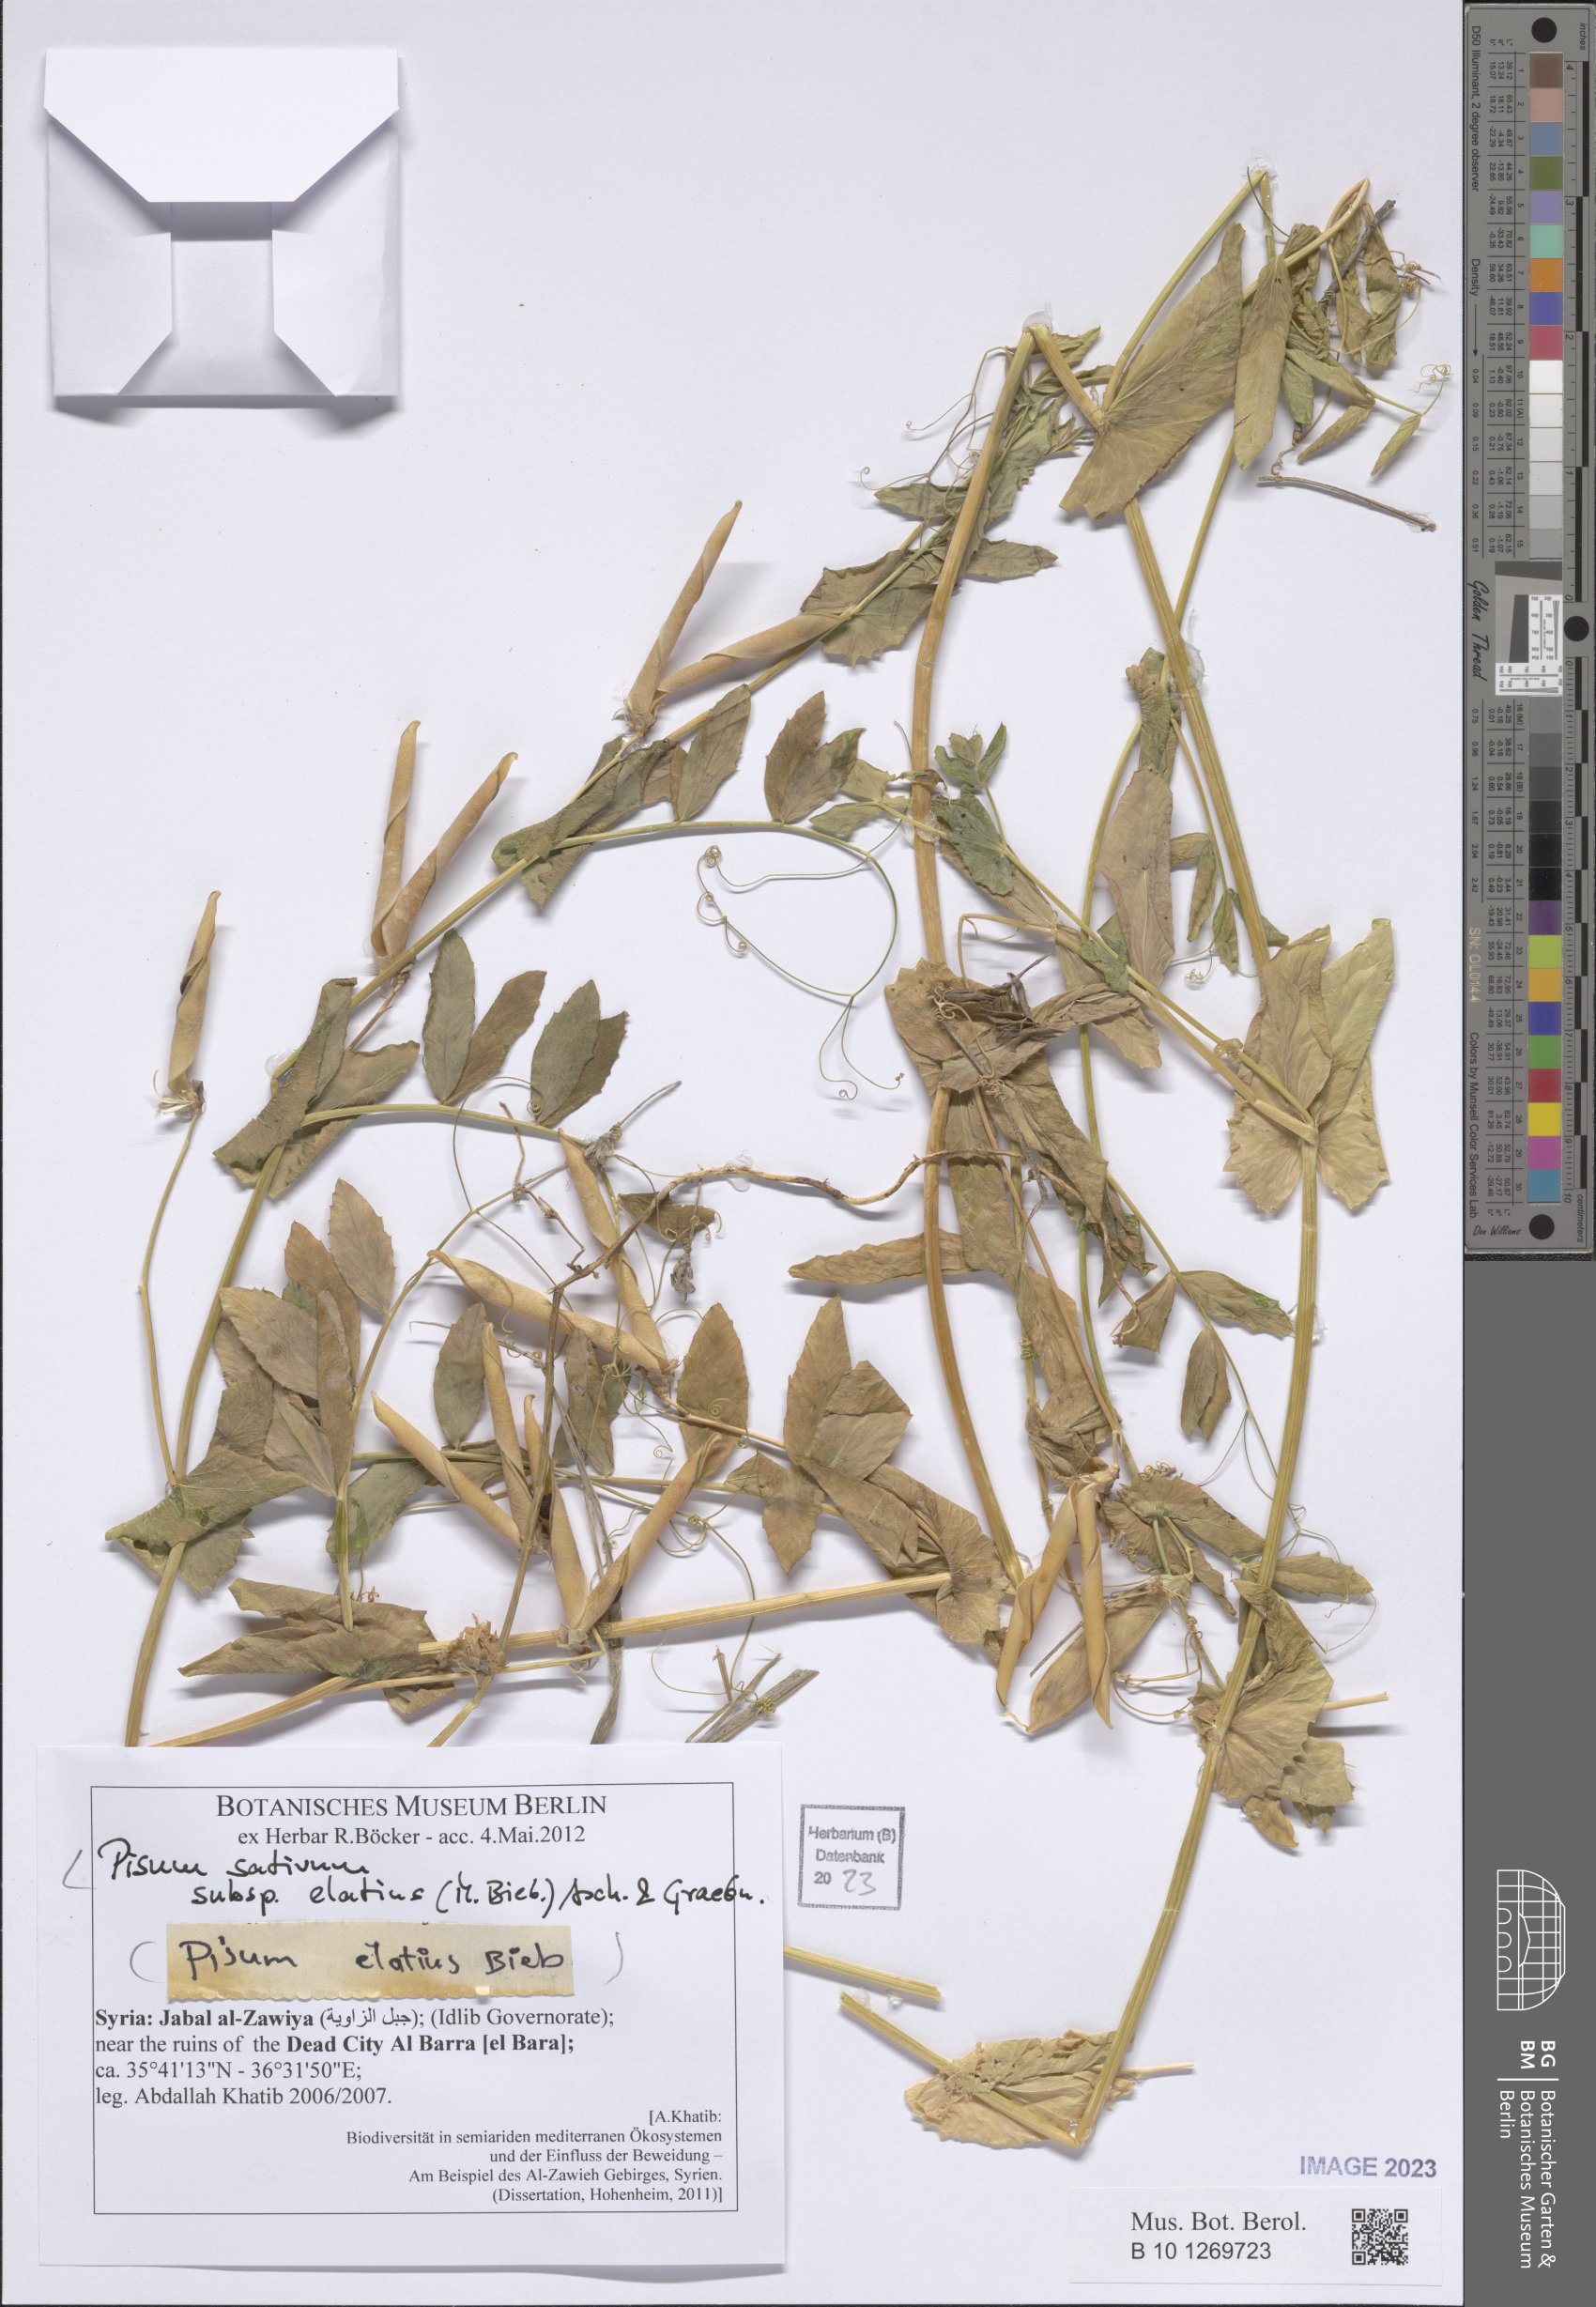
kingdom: Plantae
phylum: Tracheophyta
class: Magnoliopsida
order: Fabales
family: Fabaceae
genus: Lathyrus
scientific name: Lathyrus oleraceus
